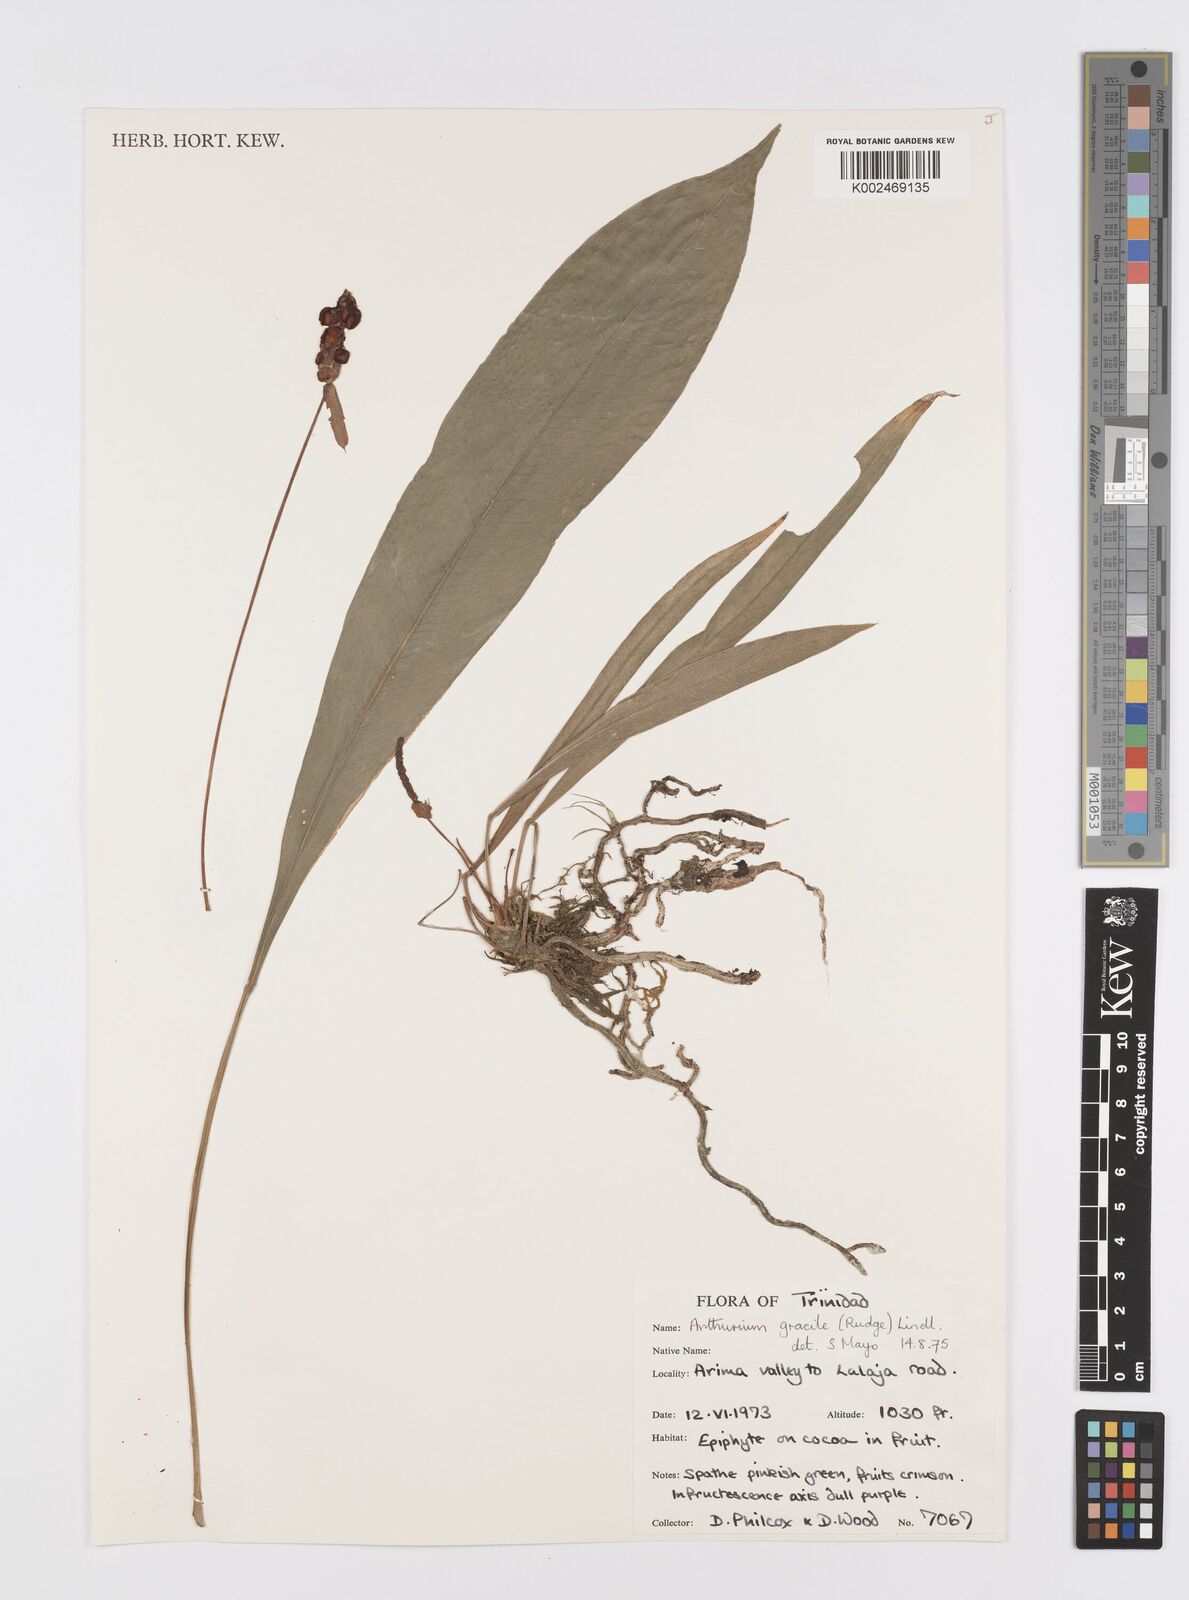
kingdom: Plantae
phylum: Tracheophyta
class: Liliopsida
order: Alismatales
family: Araceae
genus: Anthurium
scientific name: Anthurium gracile
